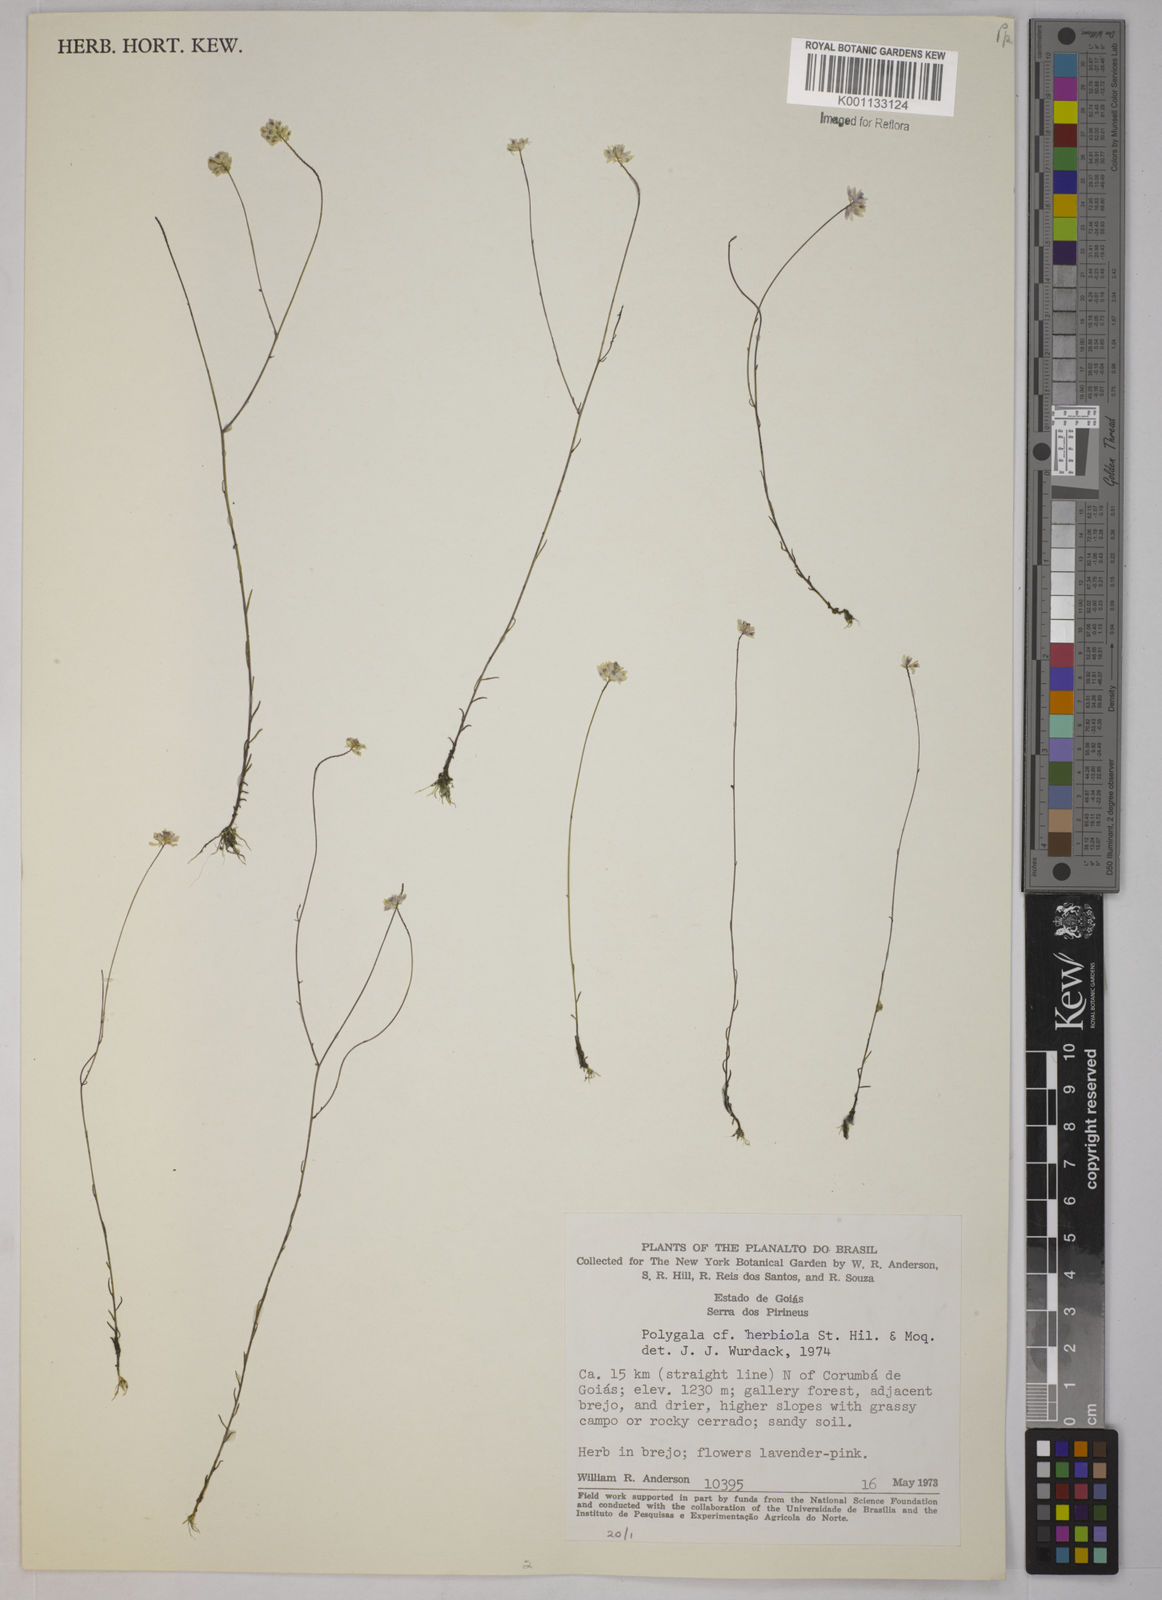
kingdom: Plantae
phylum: Tracheophyta
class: Magnoliopsida
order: Fabales
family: Polygalaceae
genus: Polygala
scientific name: Polygala herbiola
